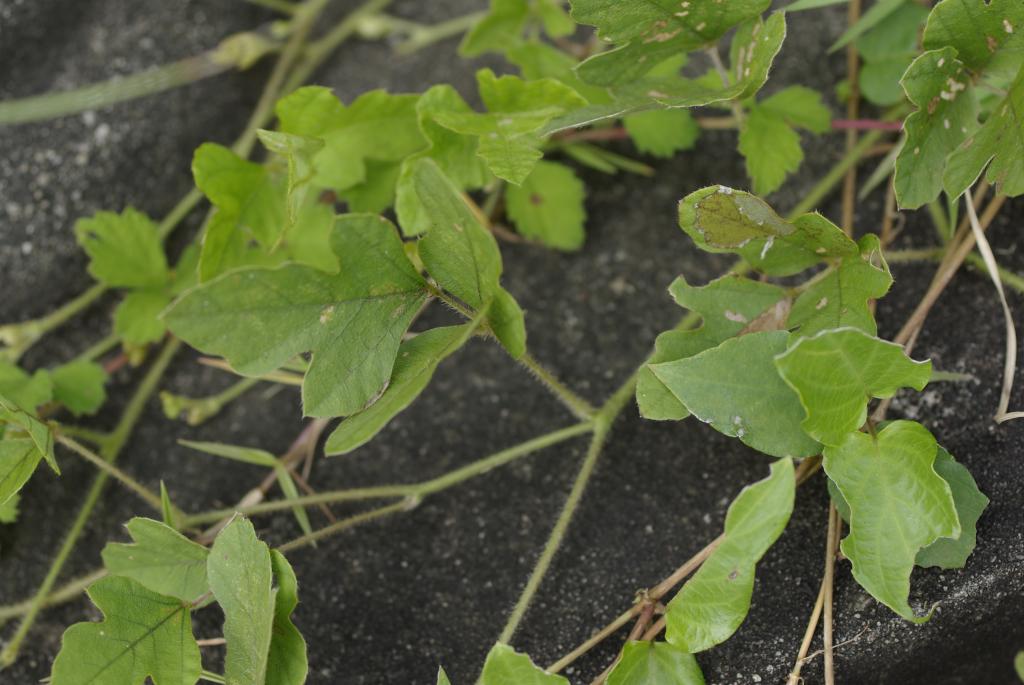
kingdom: Plantae
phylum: Tracheophyta
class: Magnoliopsida
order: Fabales
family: Fabaceae
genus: Neustanthus
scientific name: Neustanthus phaseoloides
